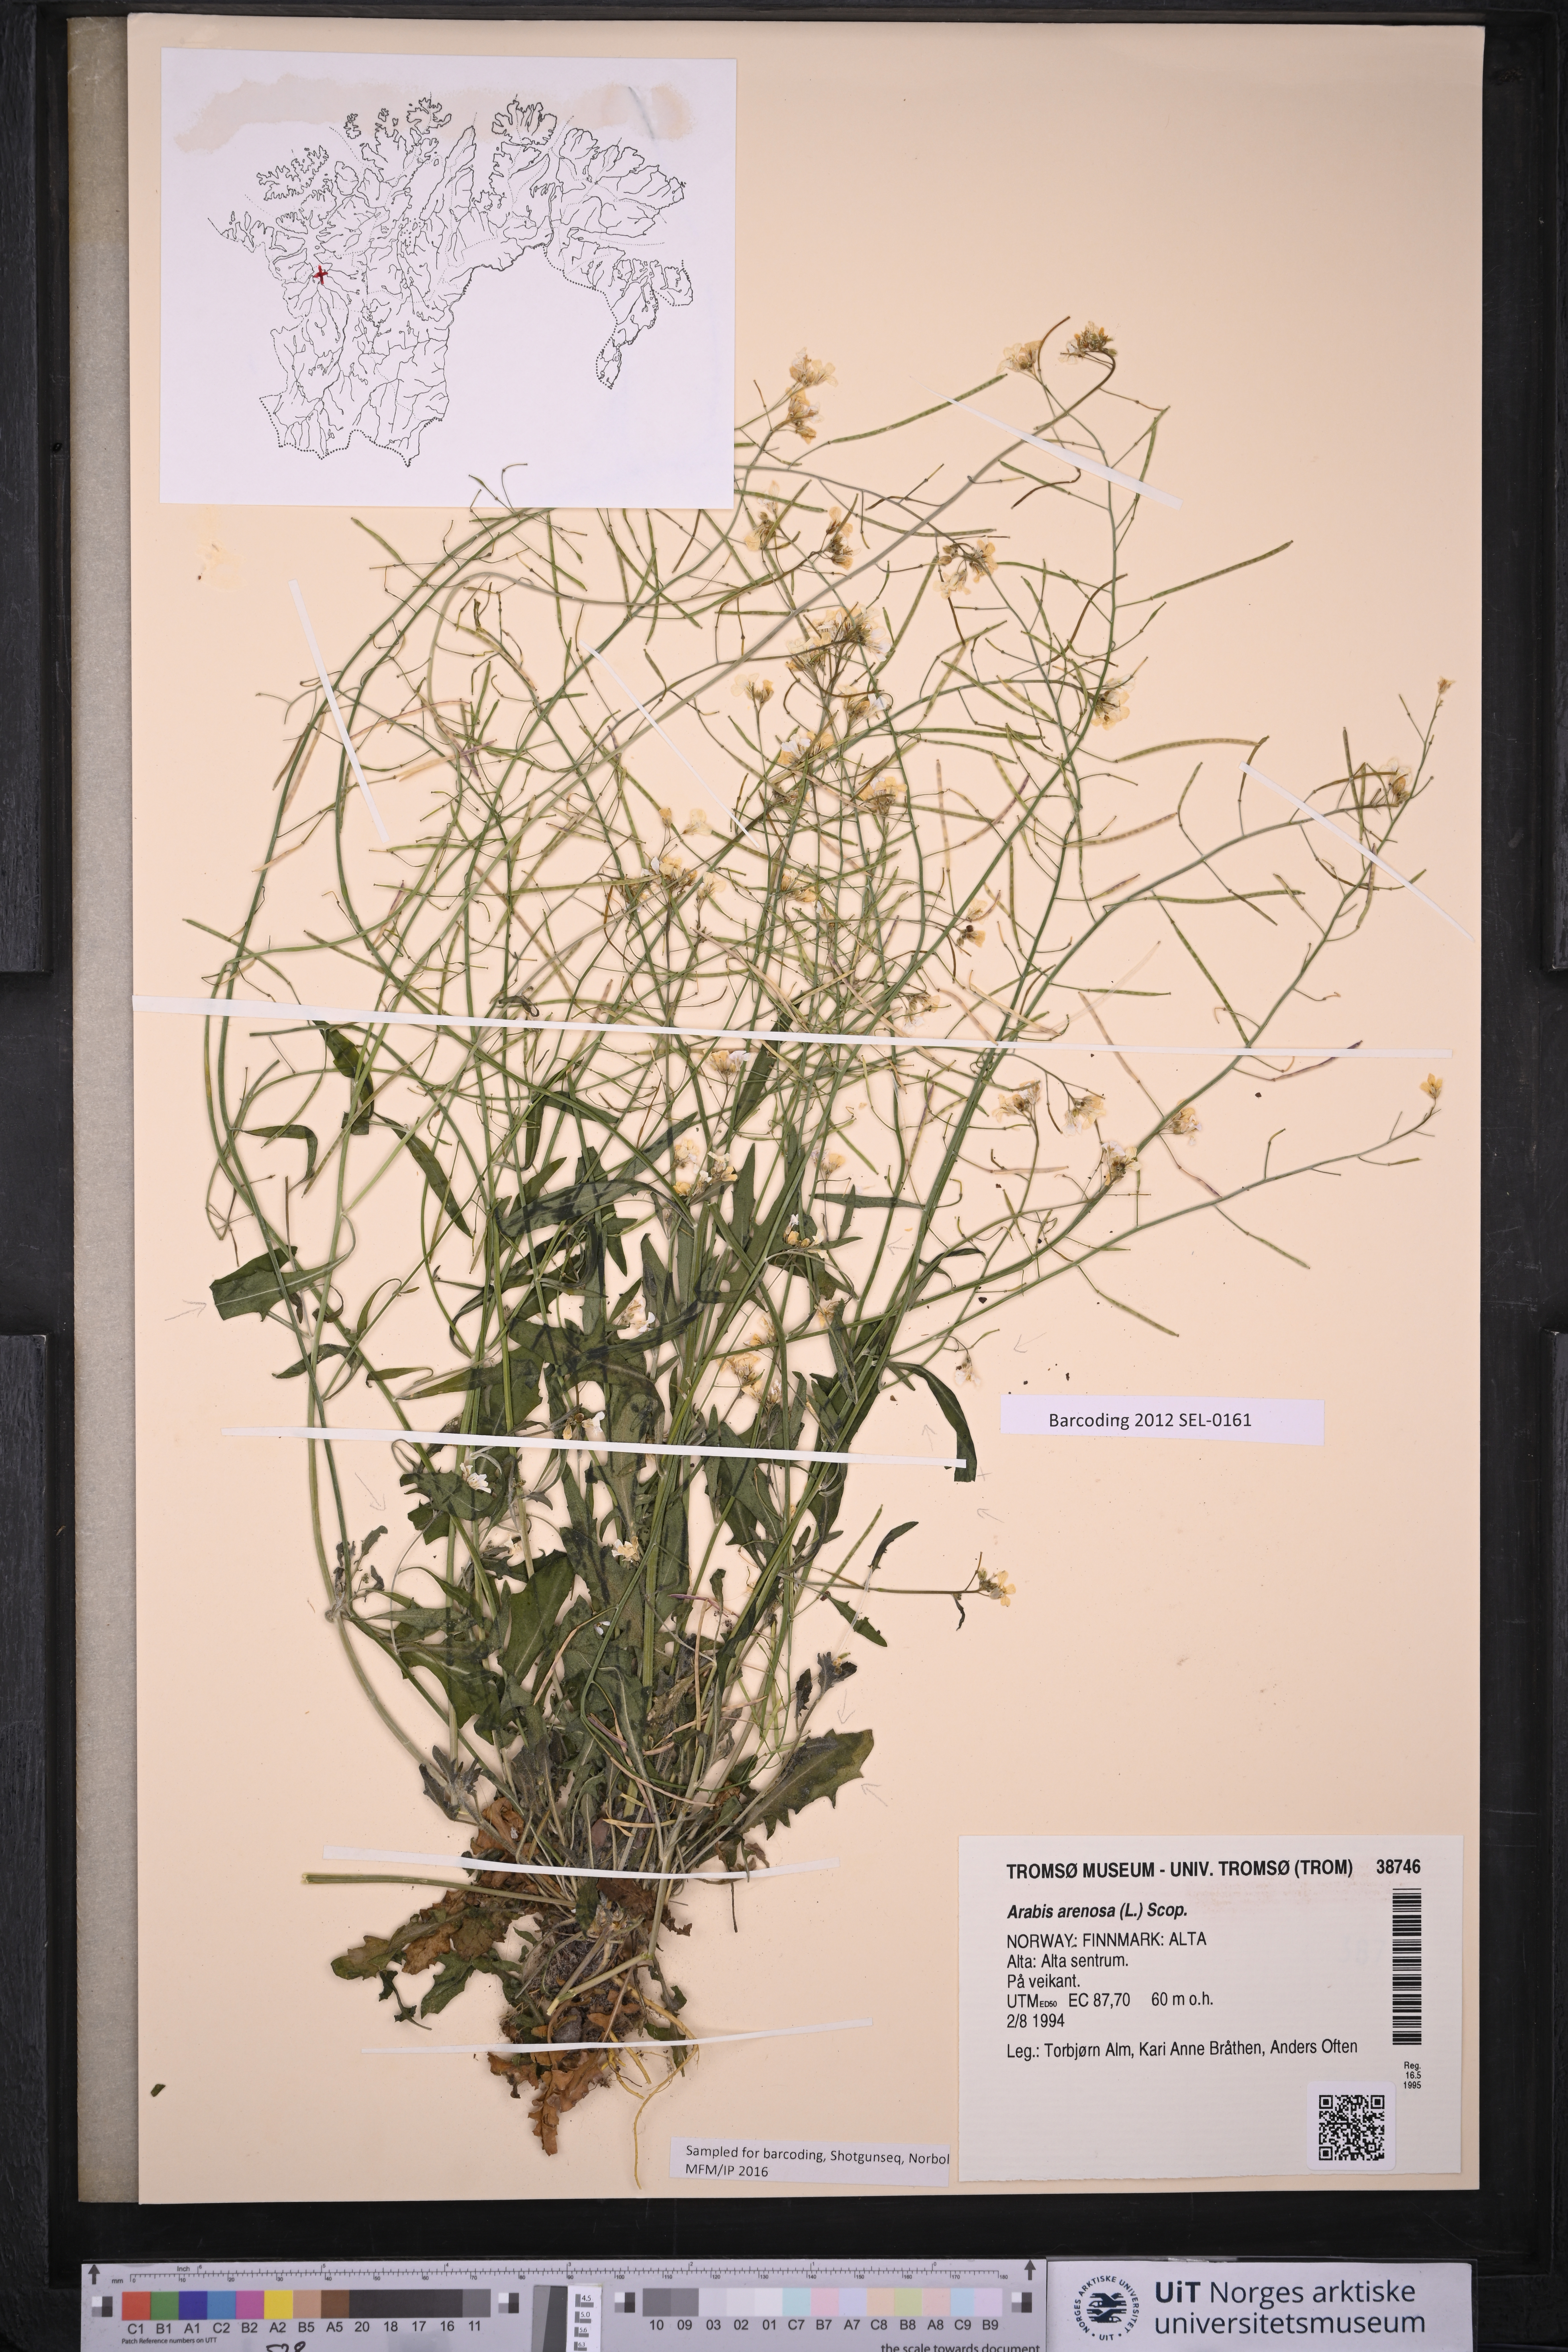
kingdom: Plantae
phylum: Tracheophyta
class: Magnoliopsida
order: Brassicales
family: Brassicaceae
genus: Arabidopsis
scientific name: Arabidopsis arenosa
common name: Sand rock-cress
